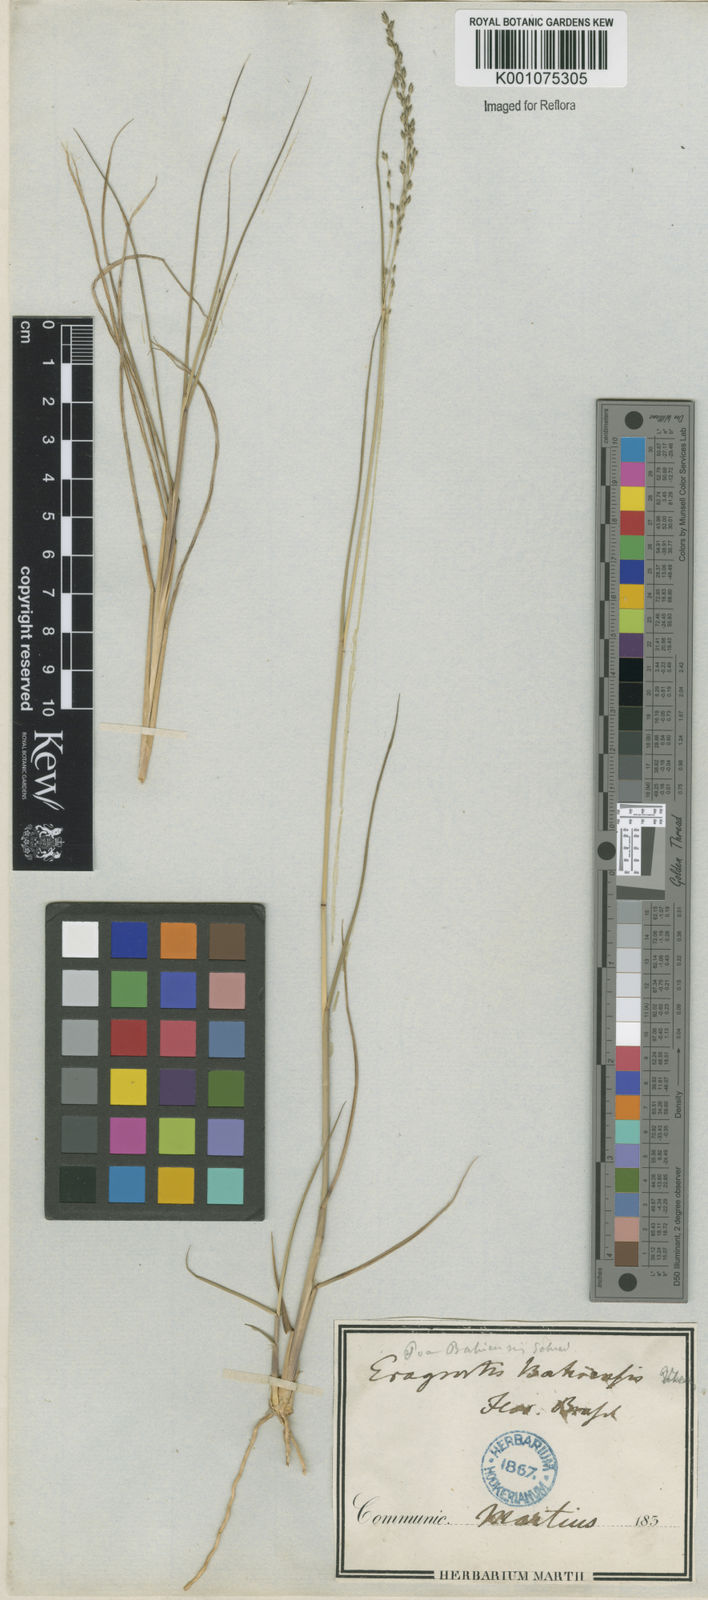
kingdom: Plantae
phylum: Tracheophyta
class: Liliopsida
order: Poales
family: Poaceae
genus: Eragrostis
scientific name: Eragrostis bahiensis
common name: Bahia lovegrass
